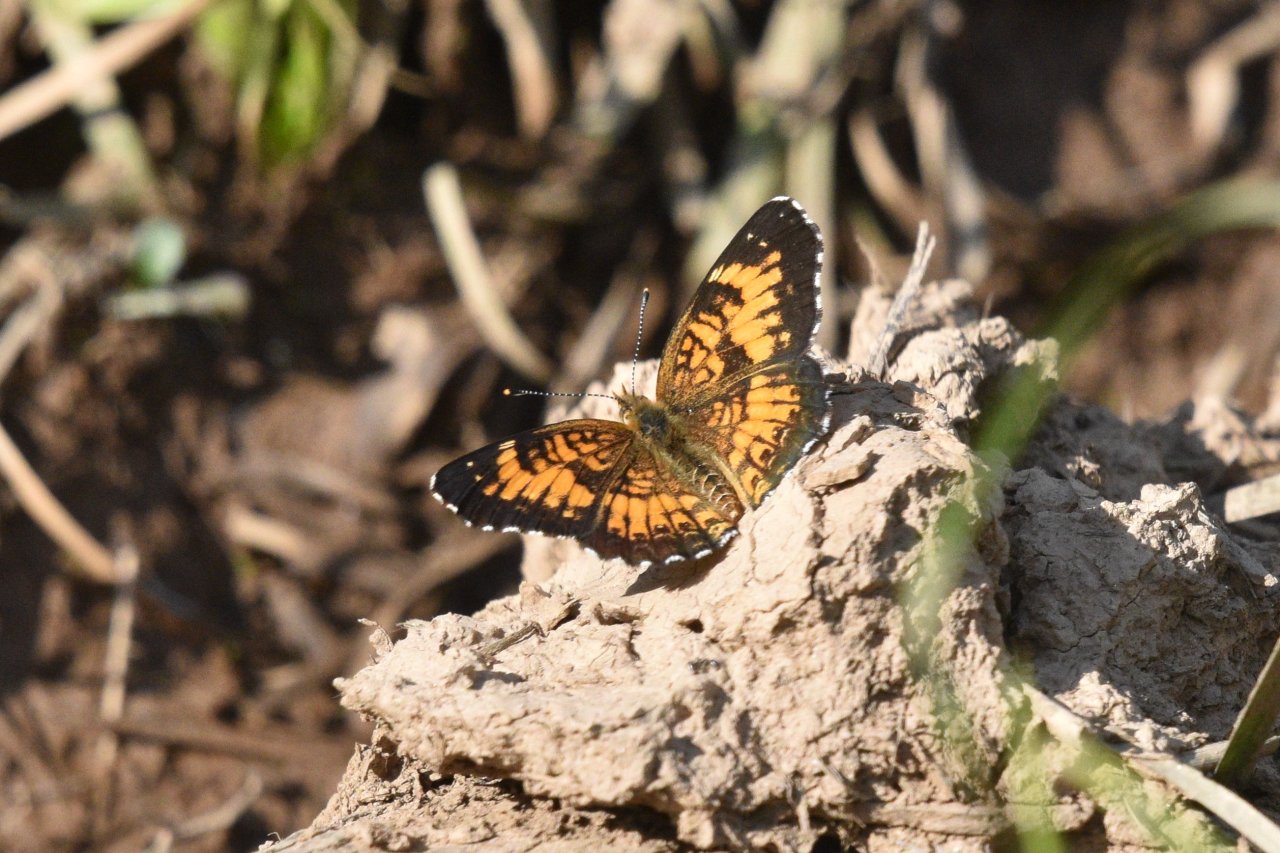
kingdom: Animalia
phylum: Arthropoda
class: Insecta
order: Lepidoptera
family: Nymphalidae
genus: Chlosyne
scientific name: Chlosyne harrisii
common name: Harris's Checkerspot
